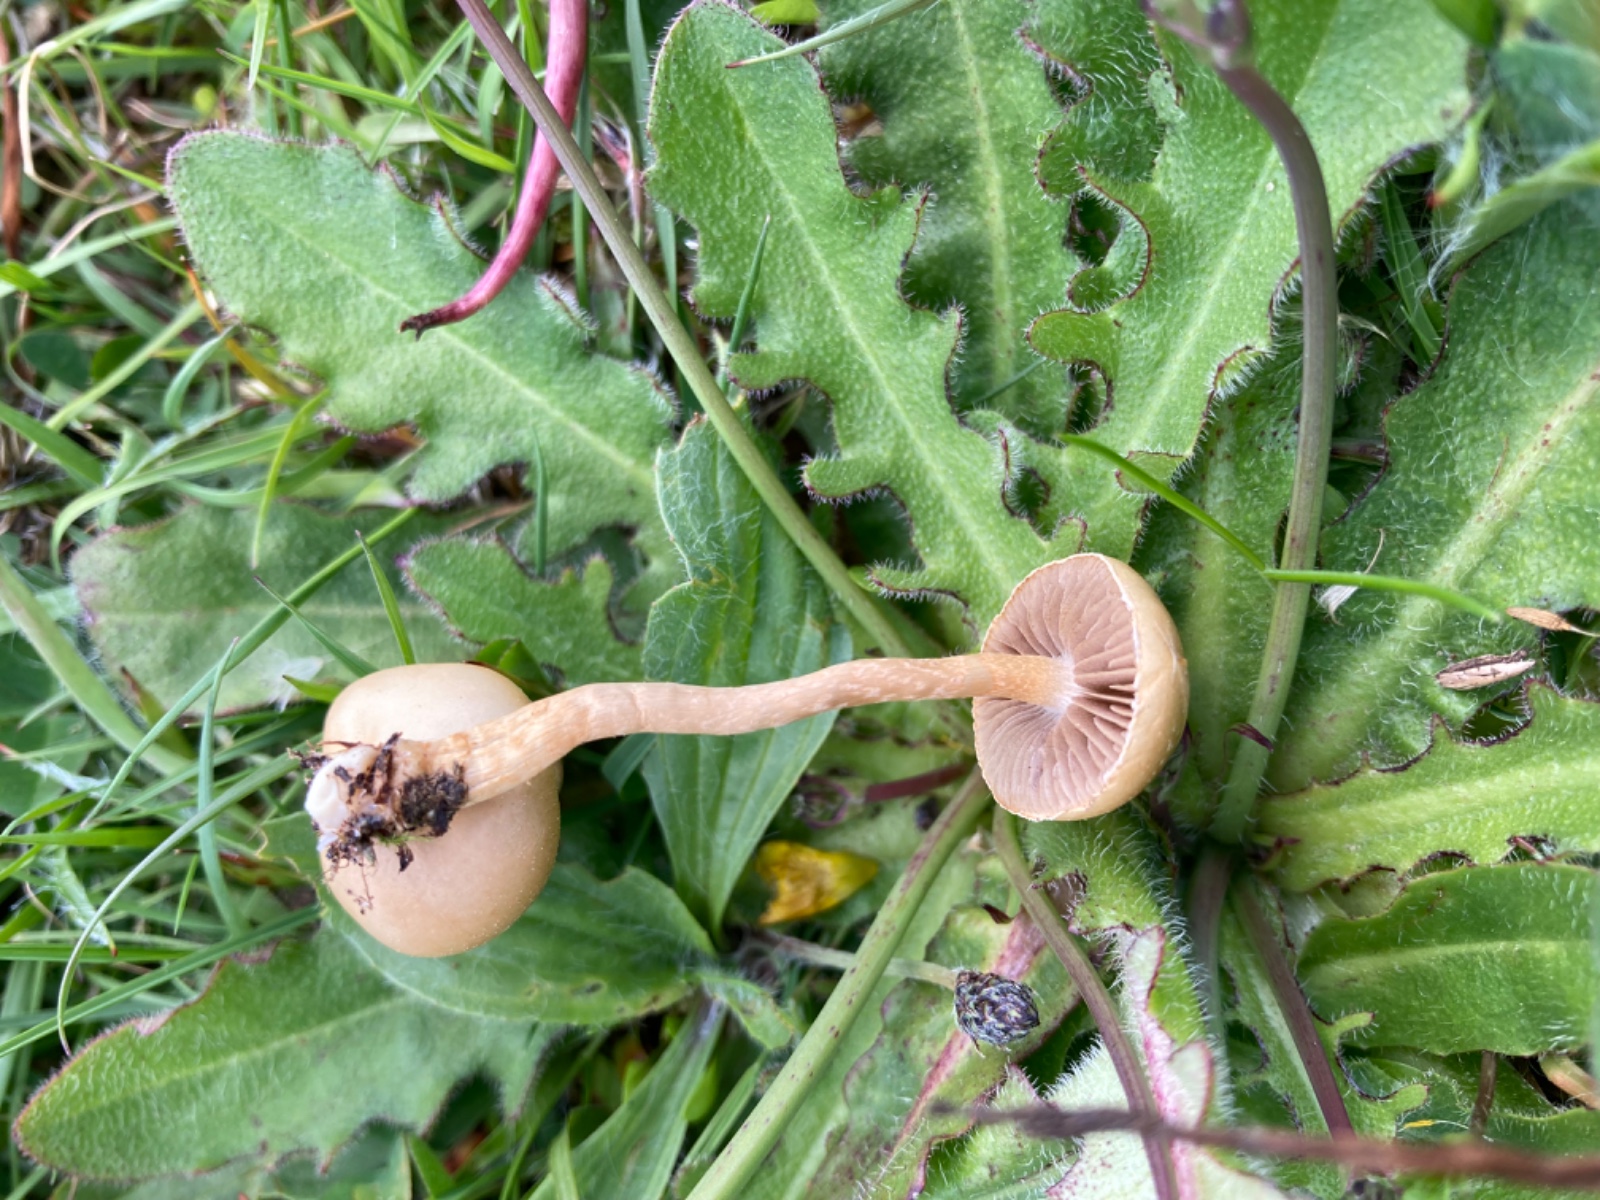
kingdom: Fungi
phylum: Basidiomycota
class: Agaricomycetes
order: Agaricales
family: Strophariaceae
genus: Agrocybe
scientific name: Agrocybe pediades
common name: almindelig agerhat
